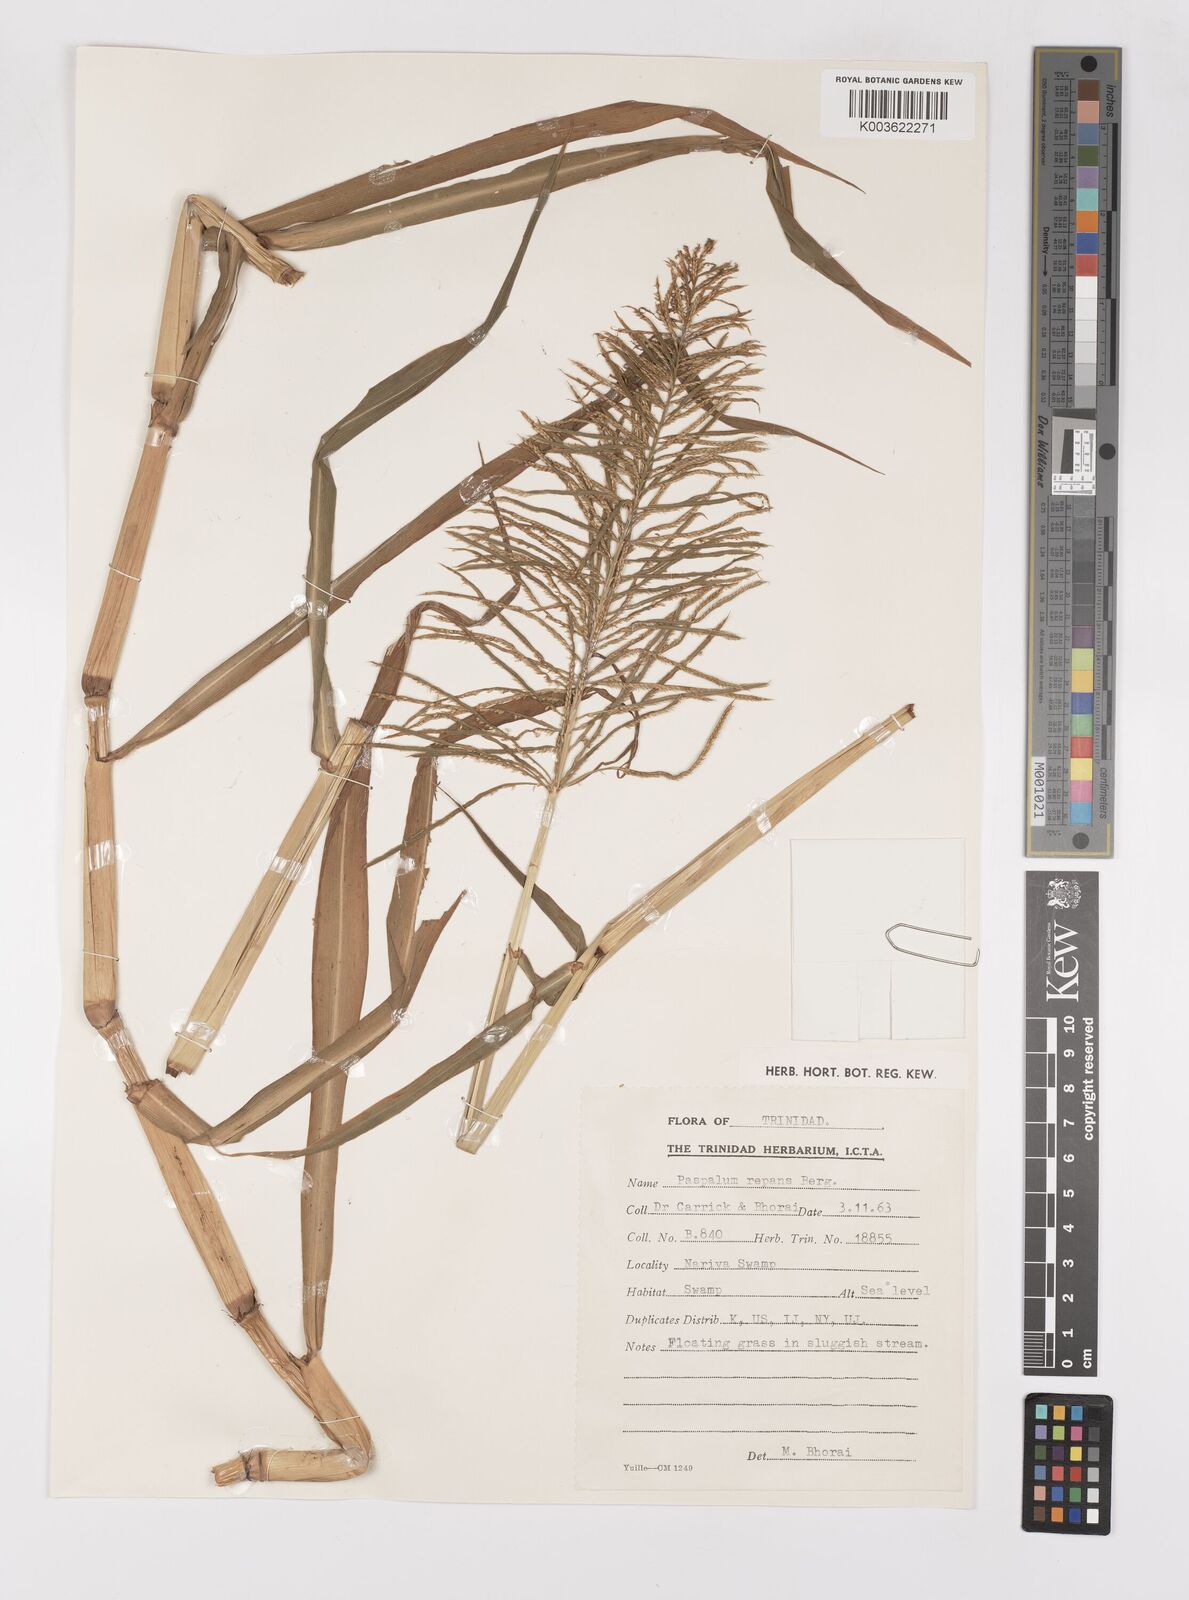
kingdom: Plantae
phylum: Tracheophyta
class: Liliopsida
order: Poales
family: Poaceae
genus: Paspalum
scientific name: Paspalum repens
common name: Water paspalum
